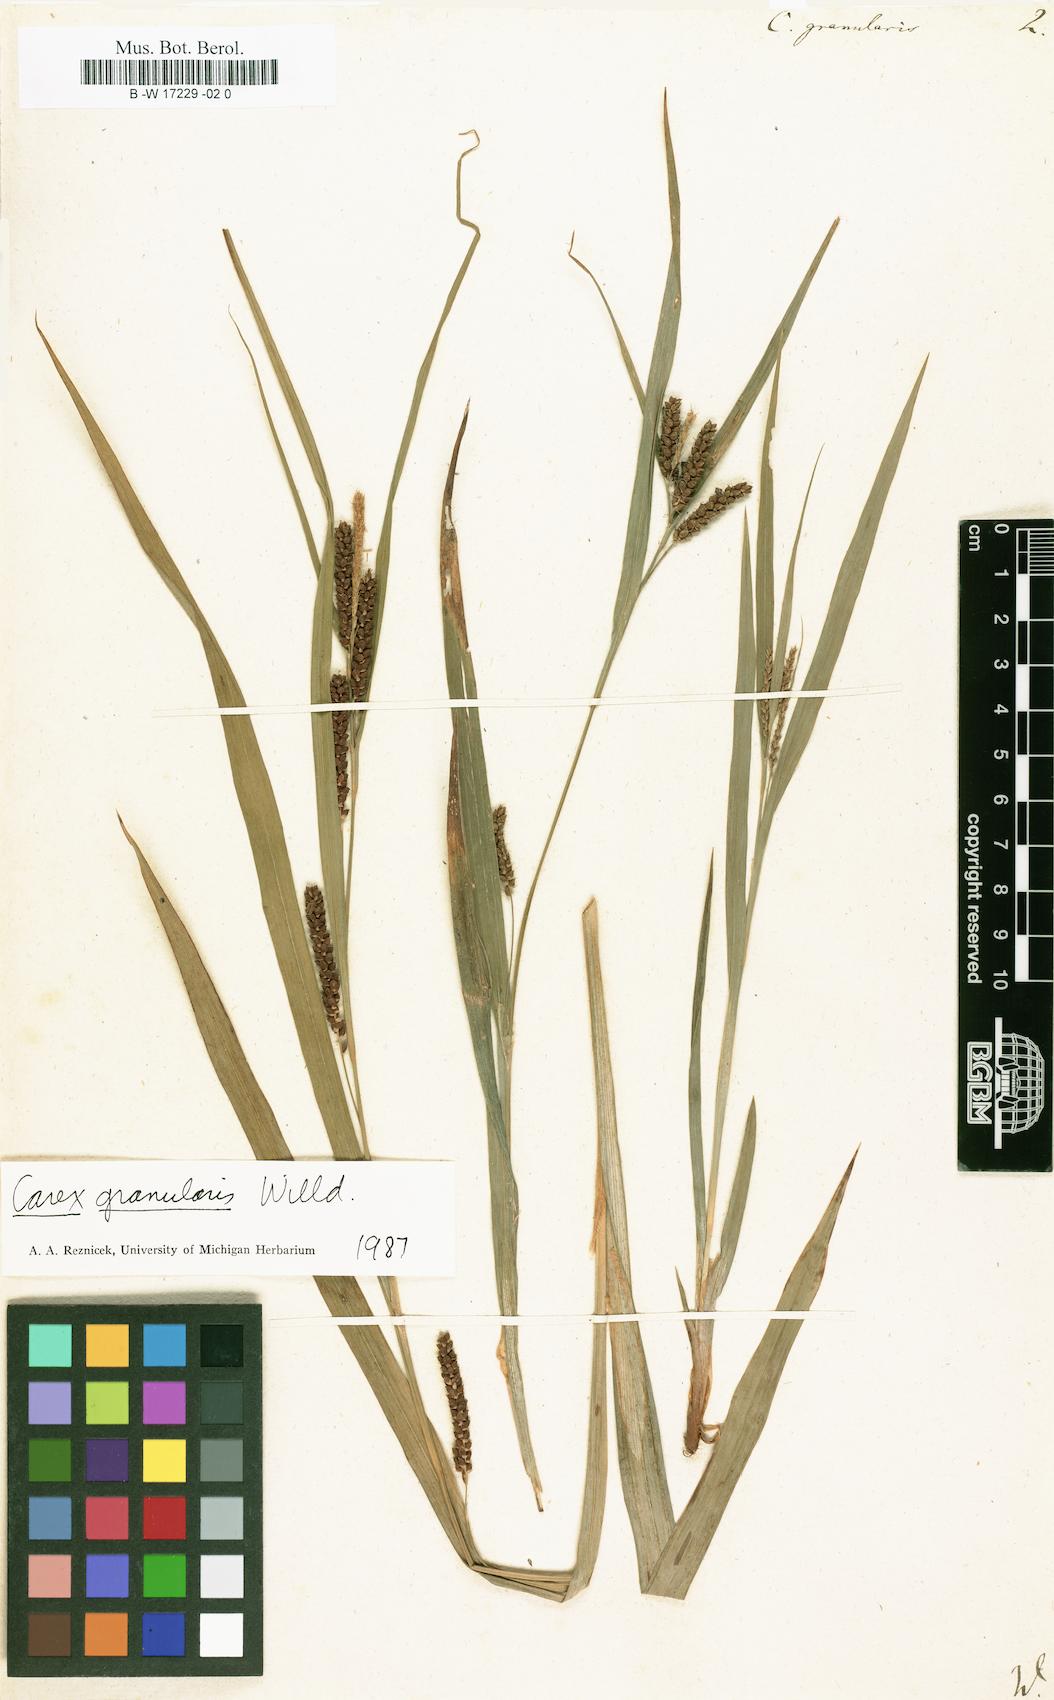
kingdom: Plantae
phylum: Tracheophyta
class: Liliopsida
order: Poales
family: Cyperaceae
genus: Carex
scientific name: Carex granularis
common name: Granular sedge
